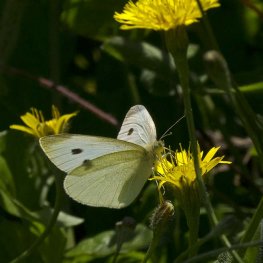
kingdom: Animalia
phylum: Arthropoda
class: Insecta
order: Lepidoptera
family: Pieridae
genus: Pieris
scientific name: Pieris rapae
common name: Cabbage White
